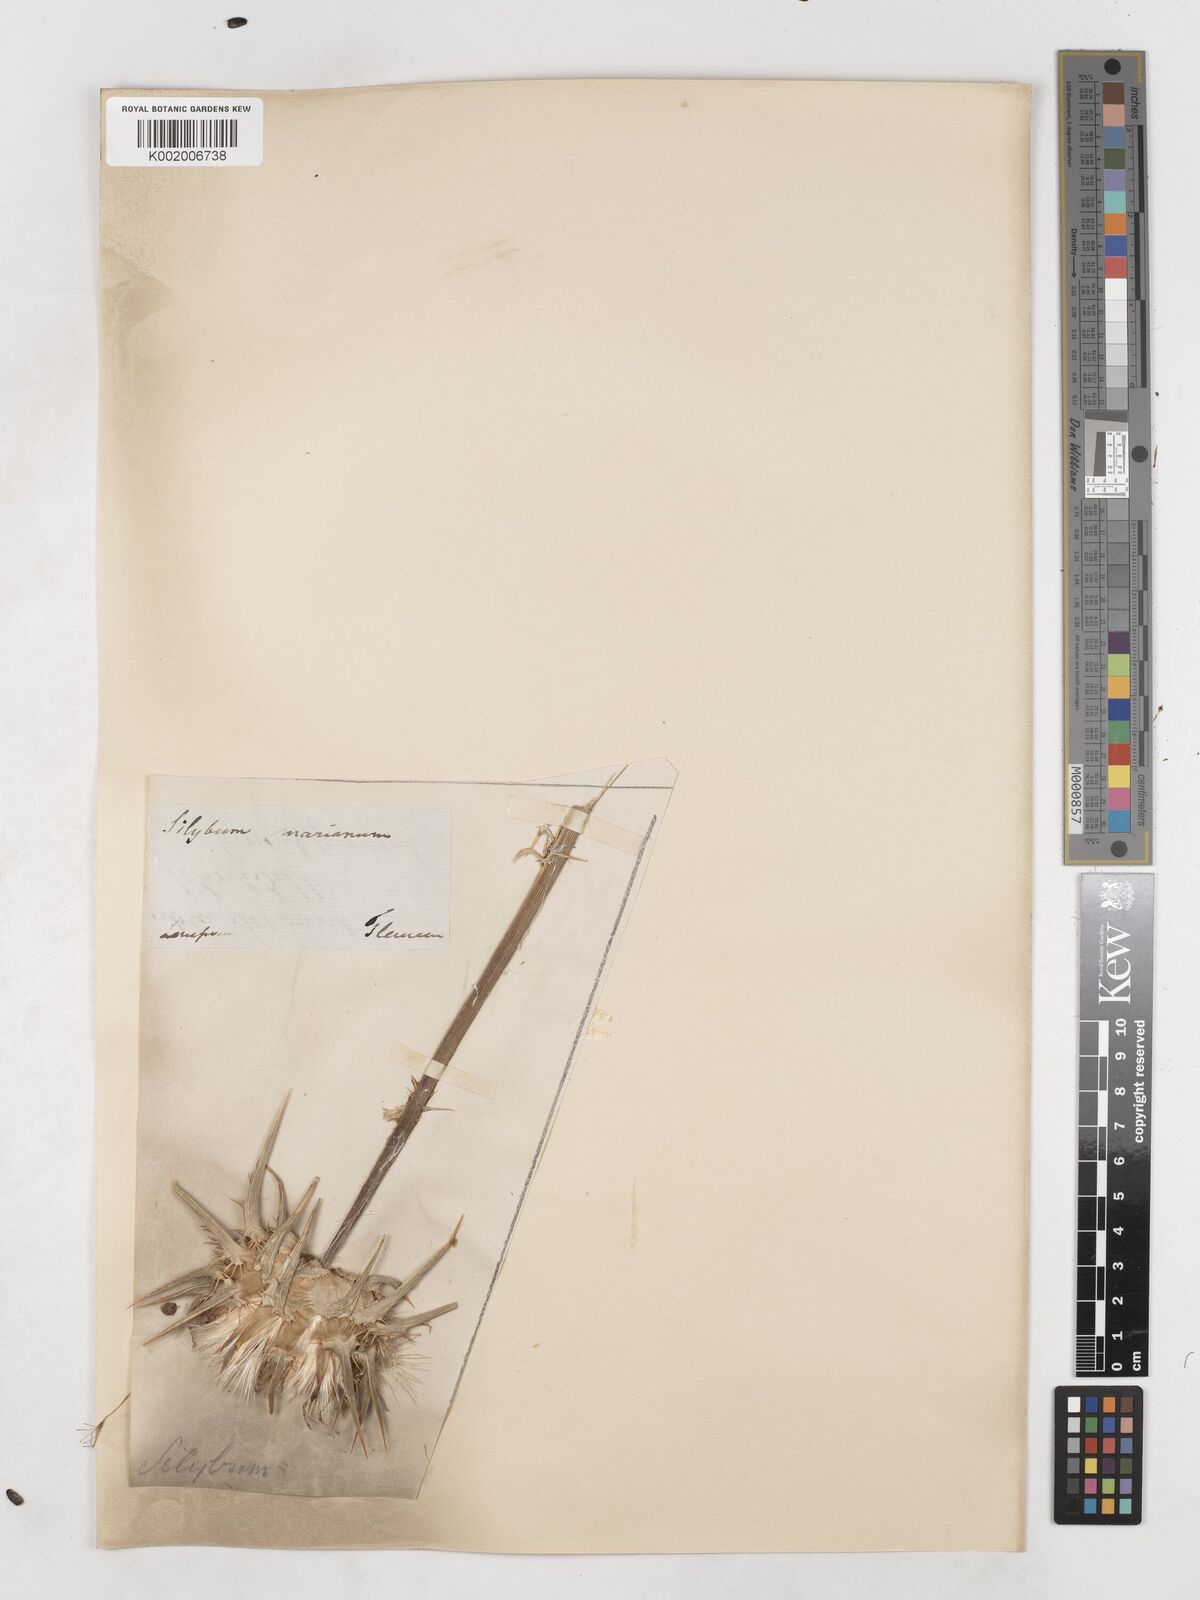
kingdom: Plantae
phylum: Tracheophyta
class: Magnoliopsida
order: Asterales
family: Asteraceae
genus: Silybum
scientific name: Silybum marianum
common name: Milk thistle
